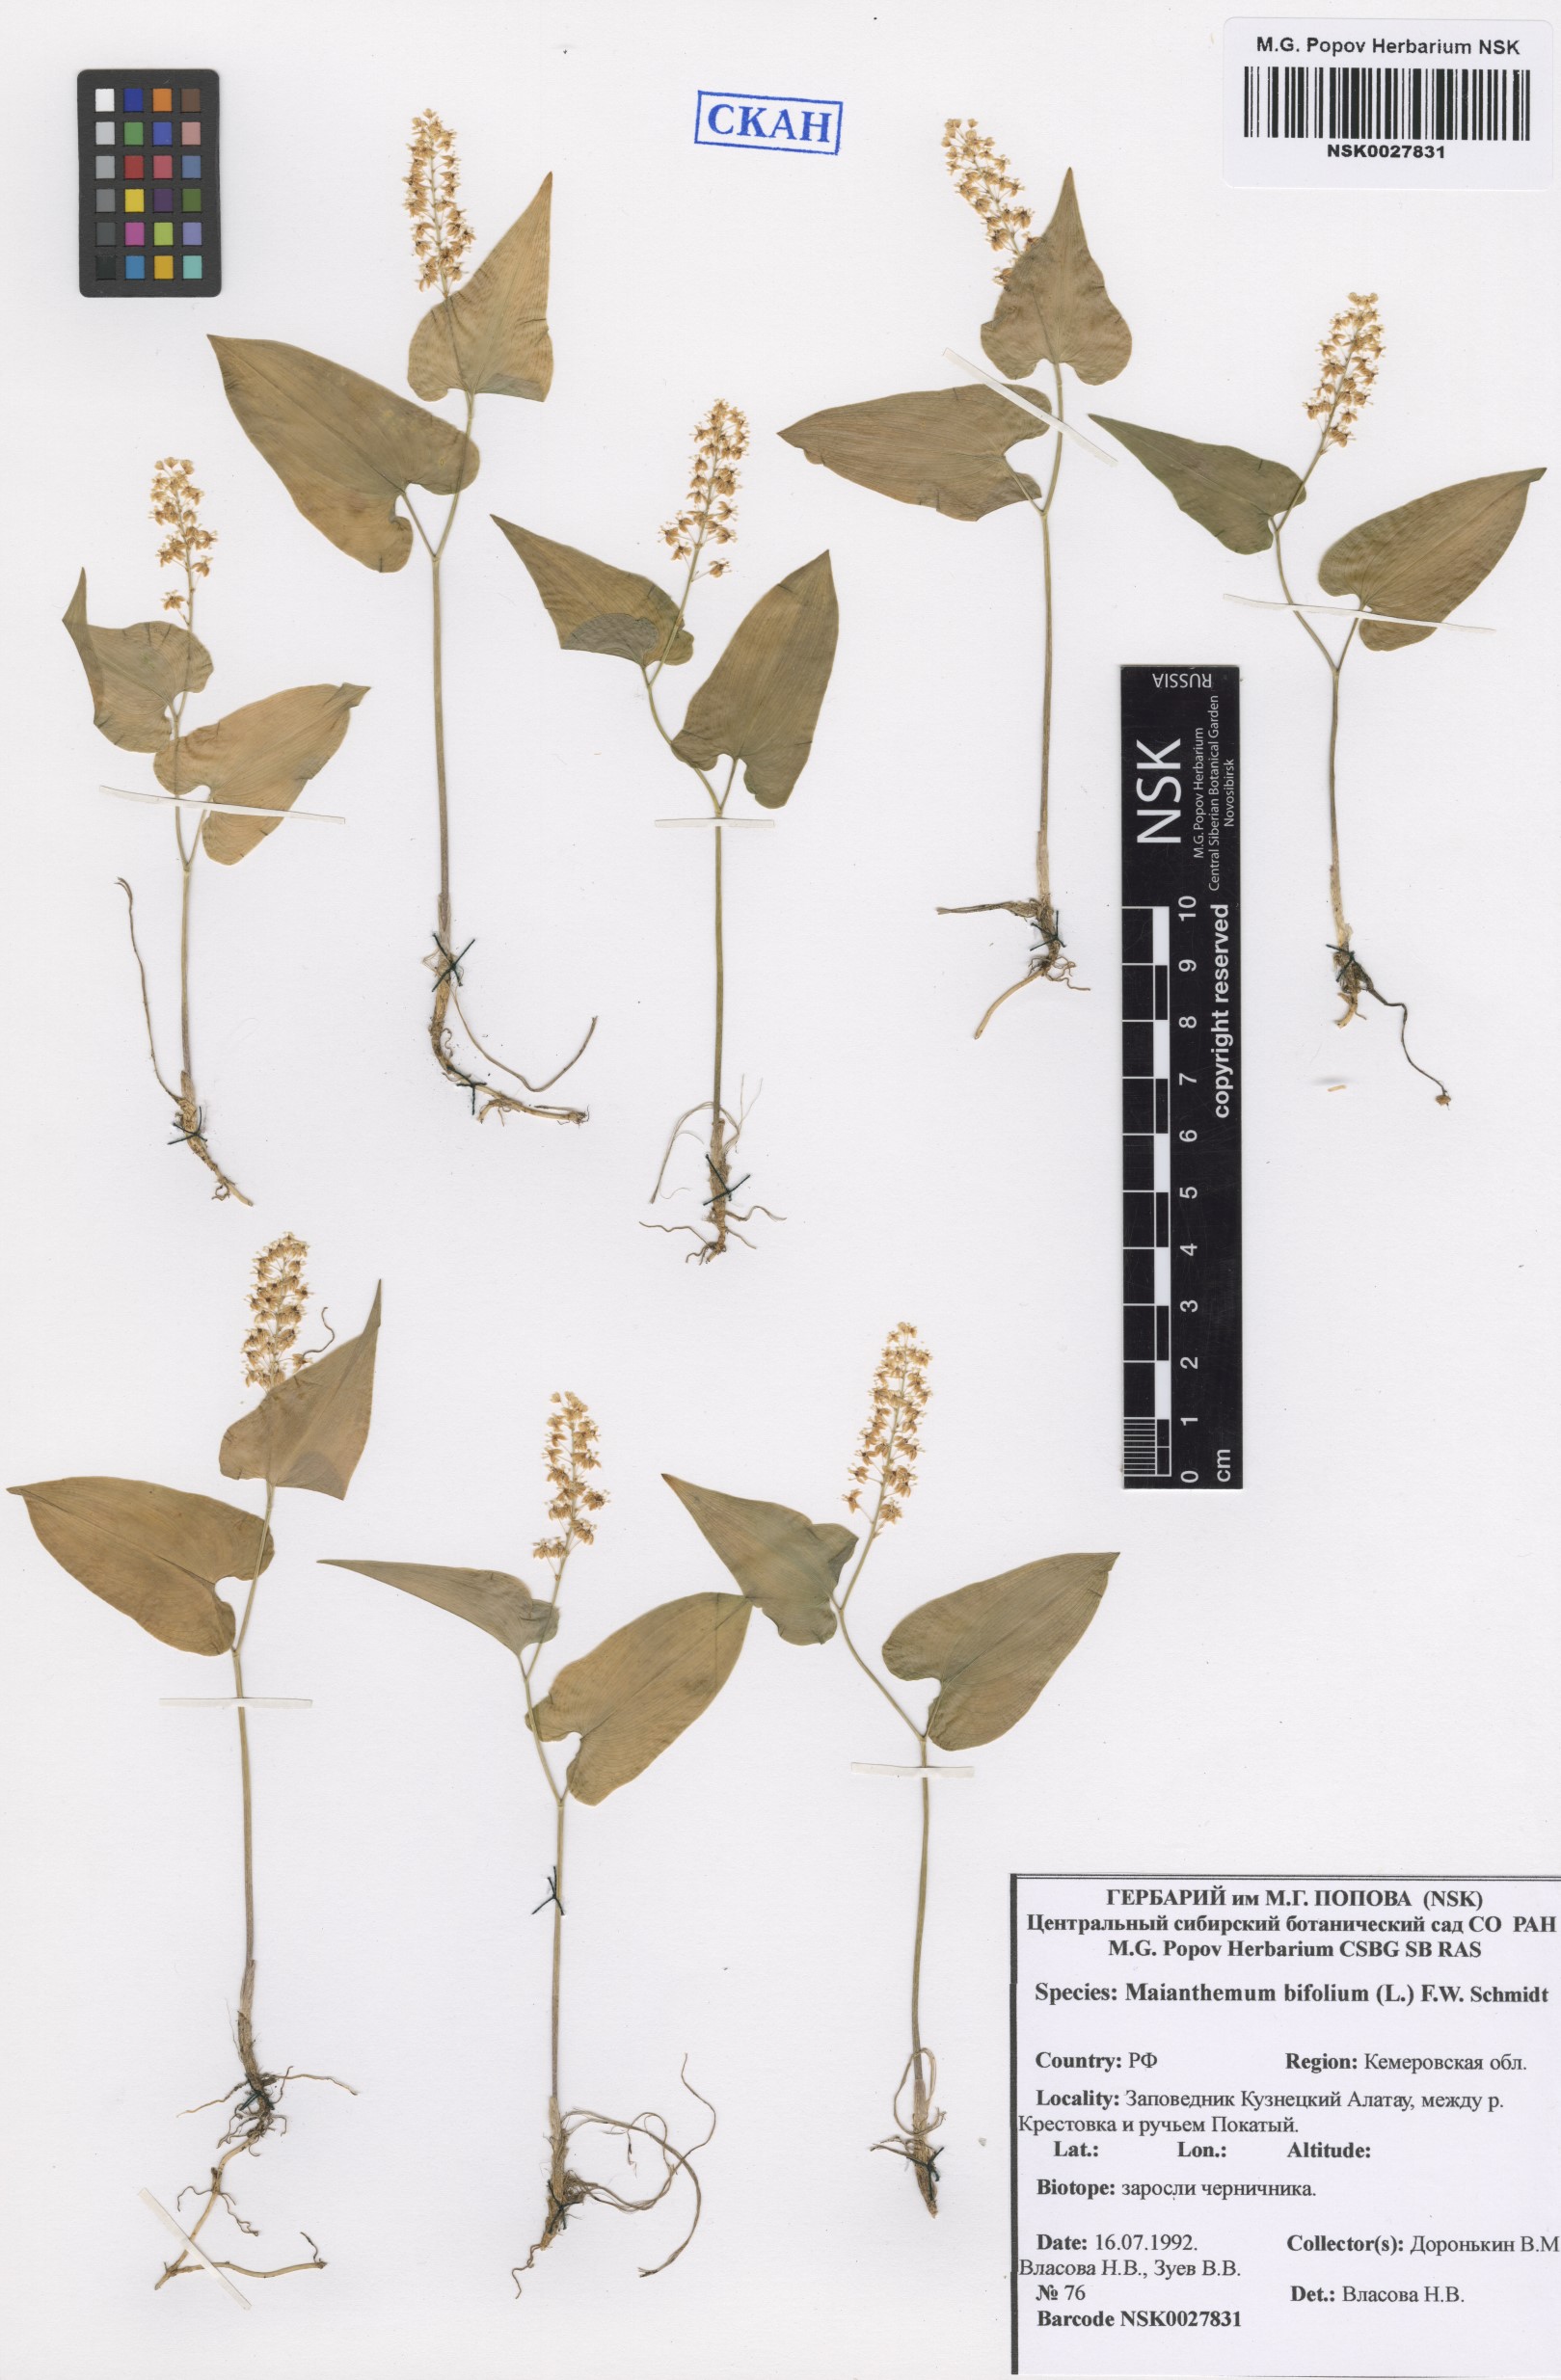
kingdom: Plantae
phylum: Tracheophyta
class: Liliopsida
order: Asparagales
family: Asparagaceae
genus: Maianthemum
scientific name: Maianthemum bifolium
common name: May lily
